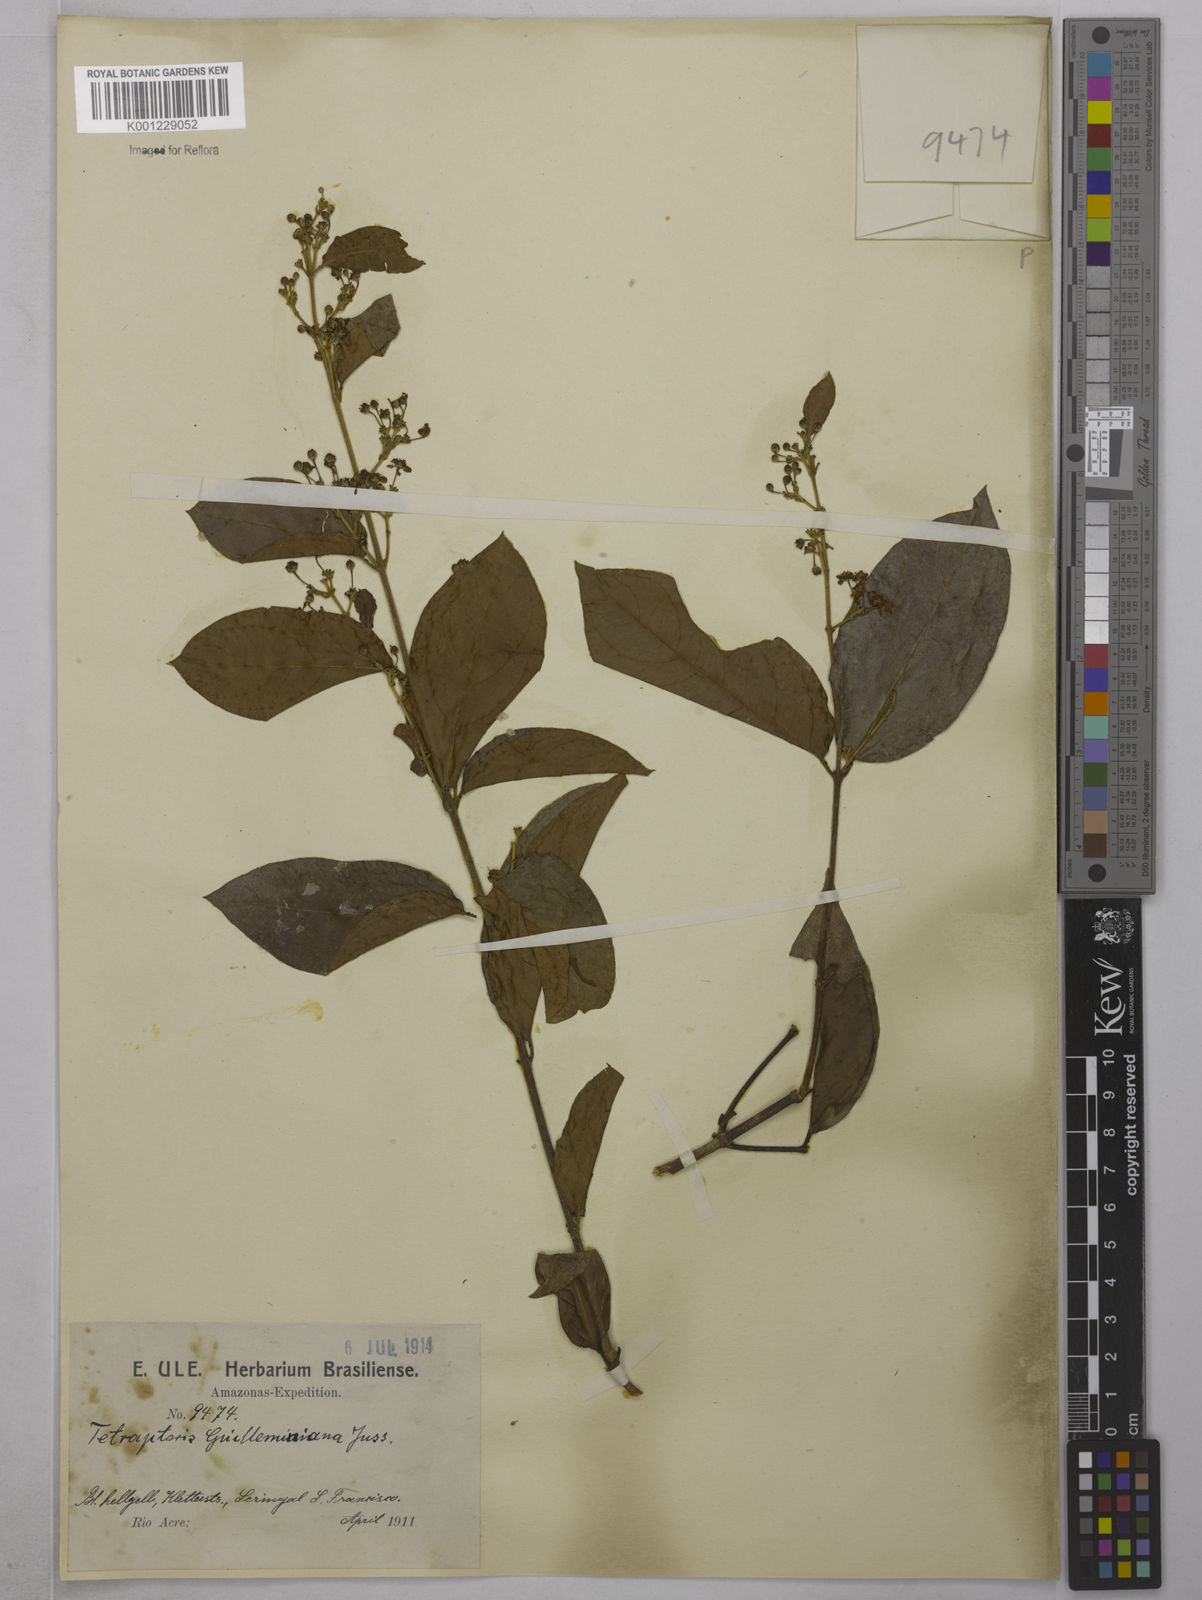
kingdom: Plantae
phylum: Tracheophyta
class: Magnoliopsida
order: Malpighiales
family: Malpighiaceae
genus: Niedenzuella
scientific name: Niedenzuella acutifolia
